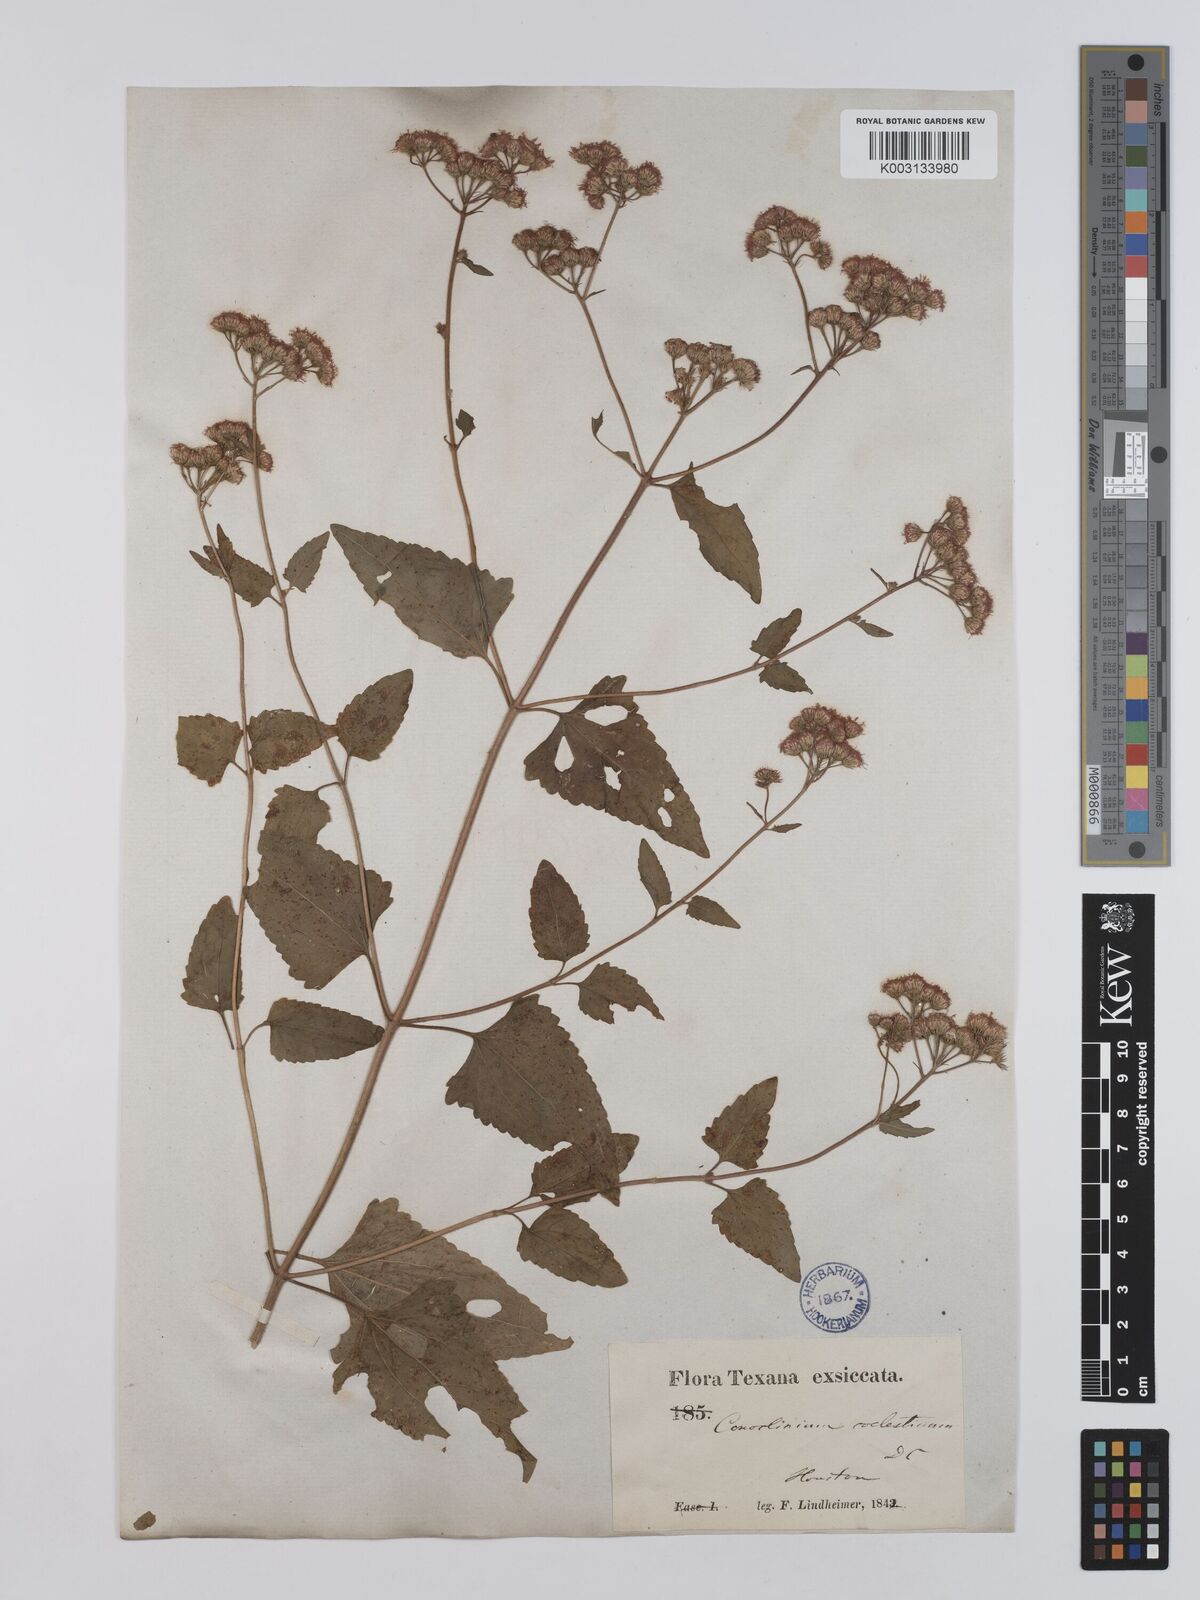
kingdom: Plantae
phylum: Tracheophyta
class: Magnoliopsida
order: Asterales
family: Asteraceae
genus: Conoclinium
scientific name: Conoclinium coelestinum
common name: Blue mistflower
